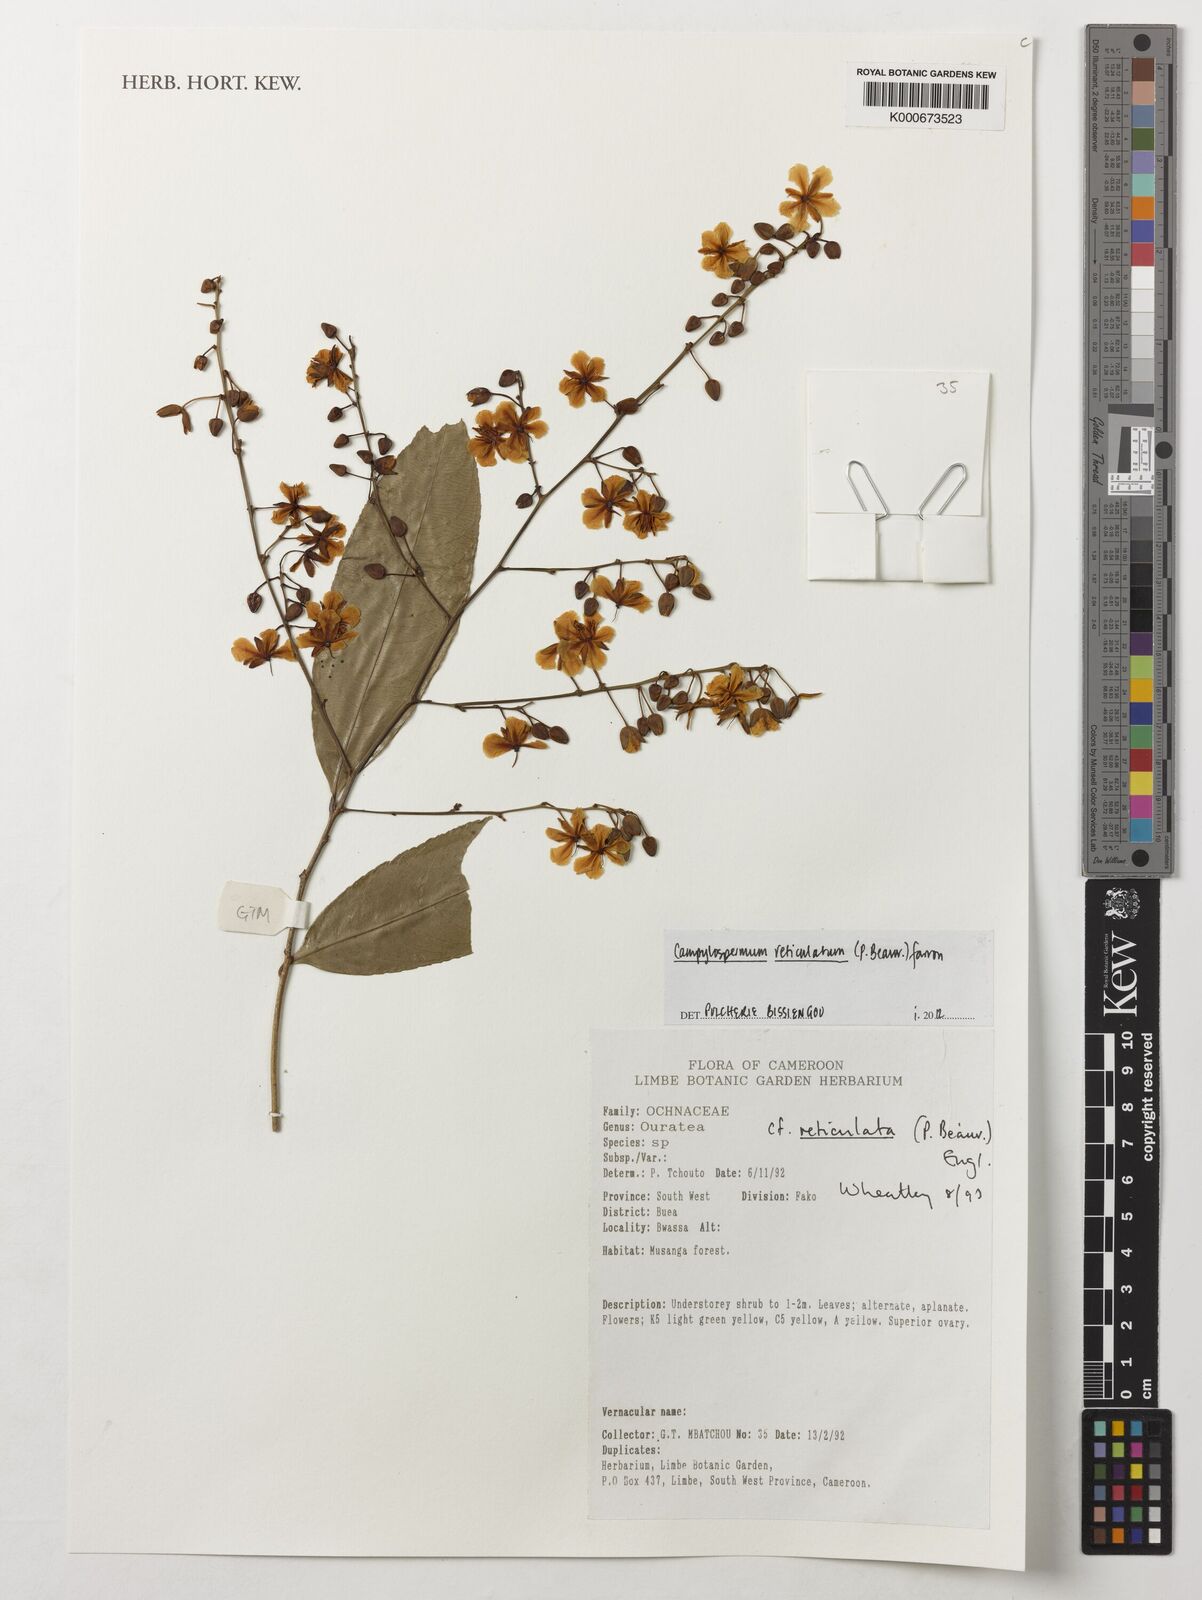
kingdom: Plantae
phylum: Tracheophyta
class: Magnoliopsida
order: Malpighiales
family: Ochnaceae
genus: Campylospermum
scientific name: Campylospermum reticulatum
